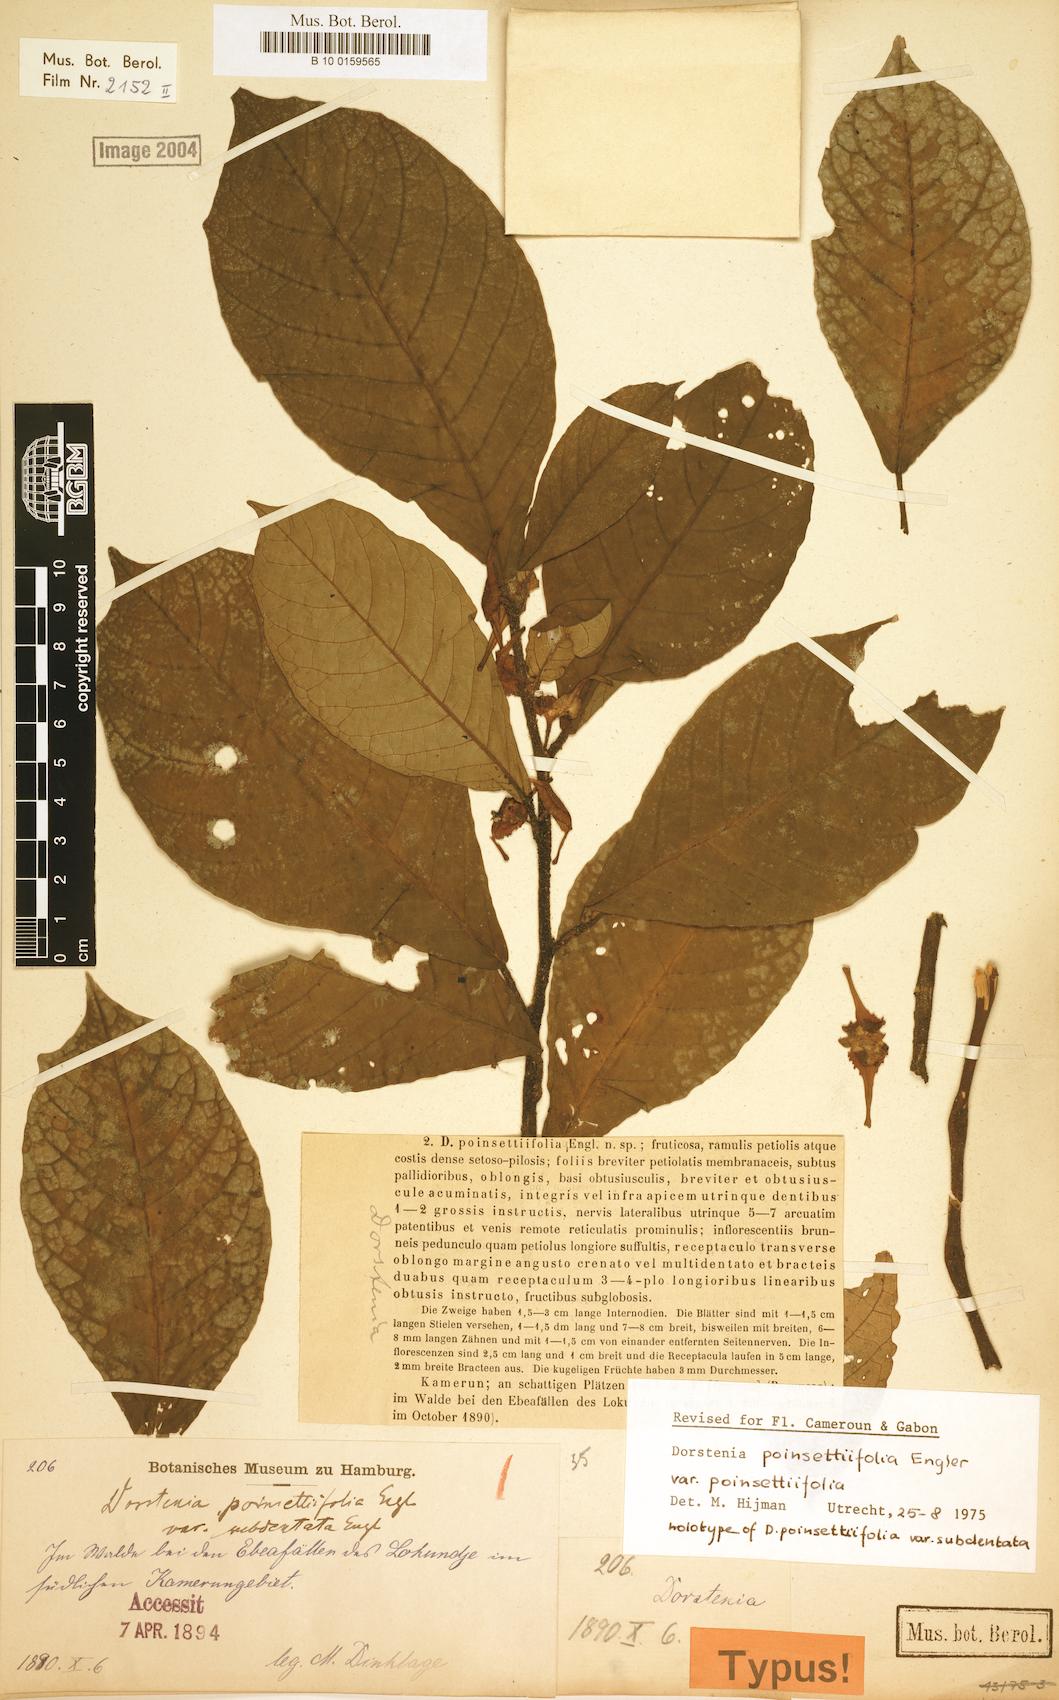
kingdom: Plantae
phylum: Tracheophyta
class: Magnoliopsida
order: Rosales
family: Moraceae
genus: Dorstenia
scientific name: Dorstenia poinsettifolia
